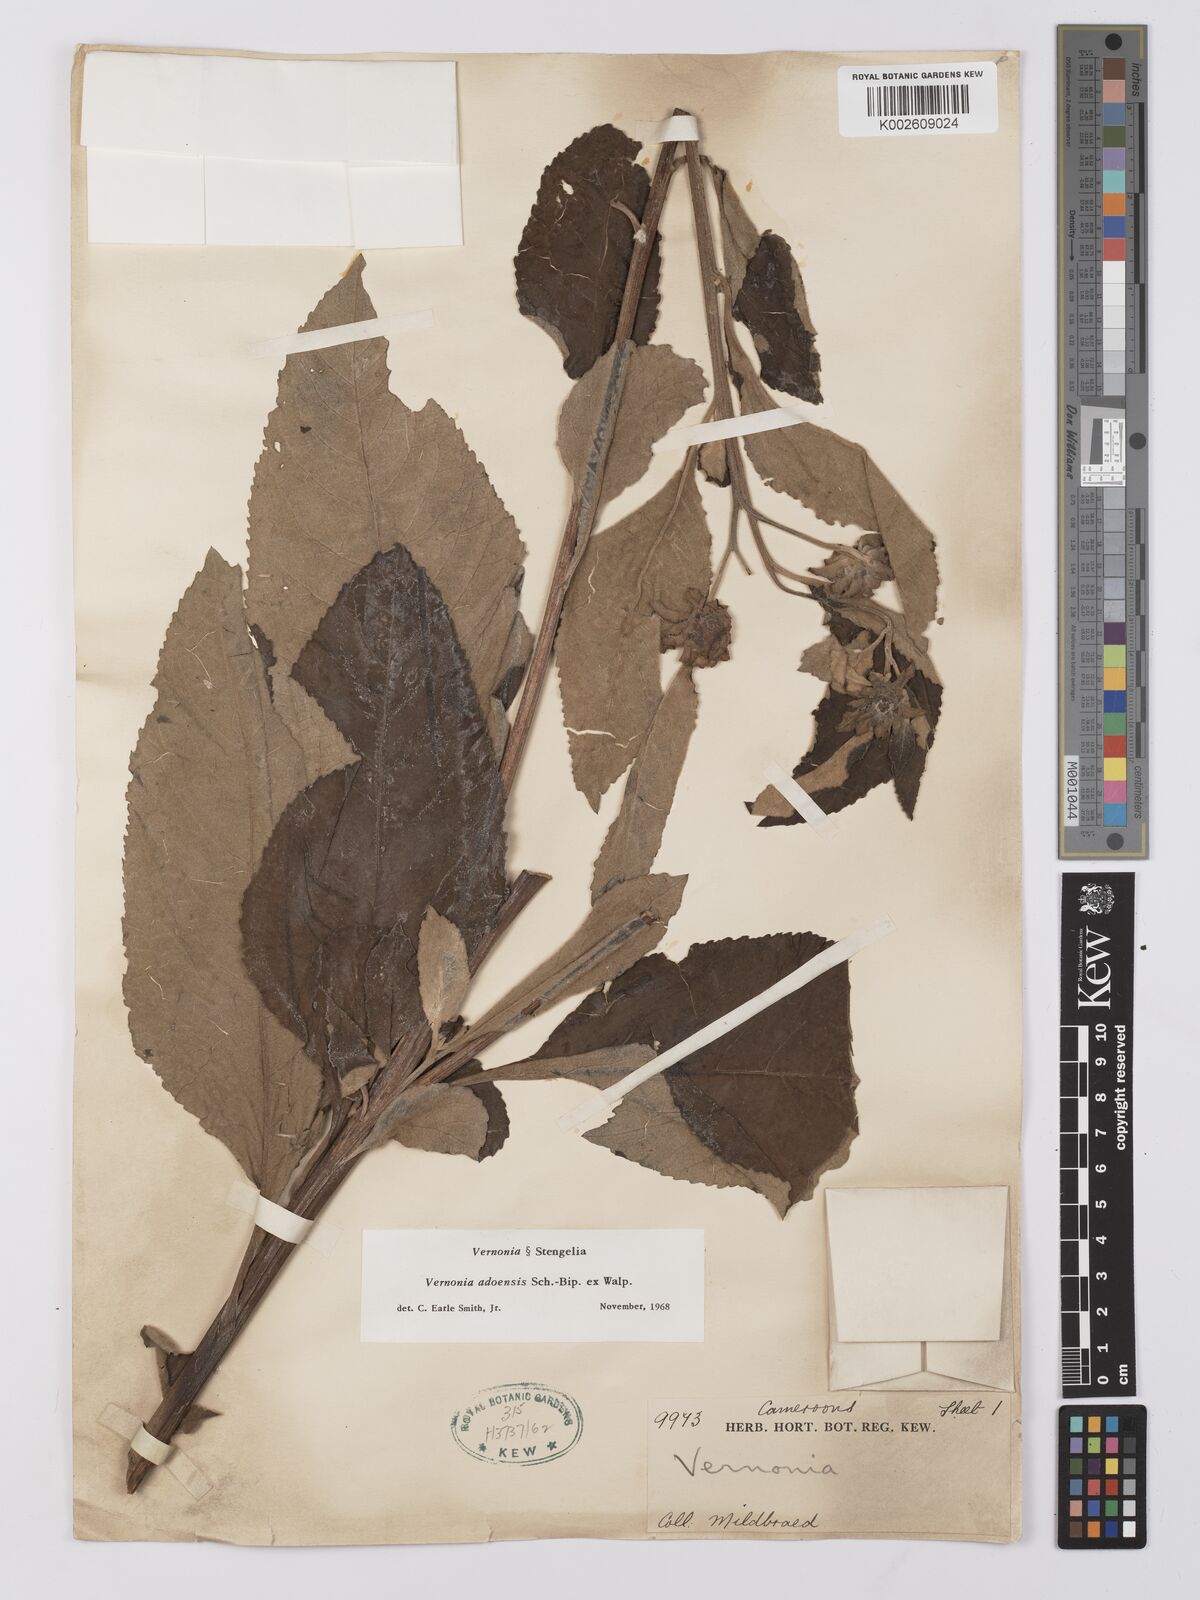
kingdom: Plantae
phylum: Tracheophyta
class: Magnoliopsida
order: Asterales
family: Asteraceae
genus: Baccharoides
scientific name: Baccharoides adoensis
